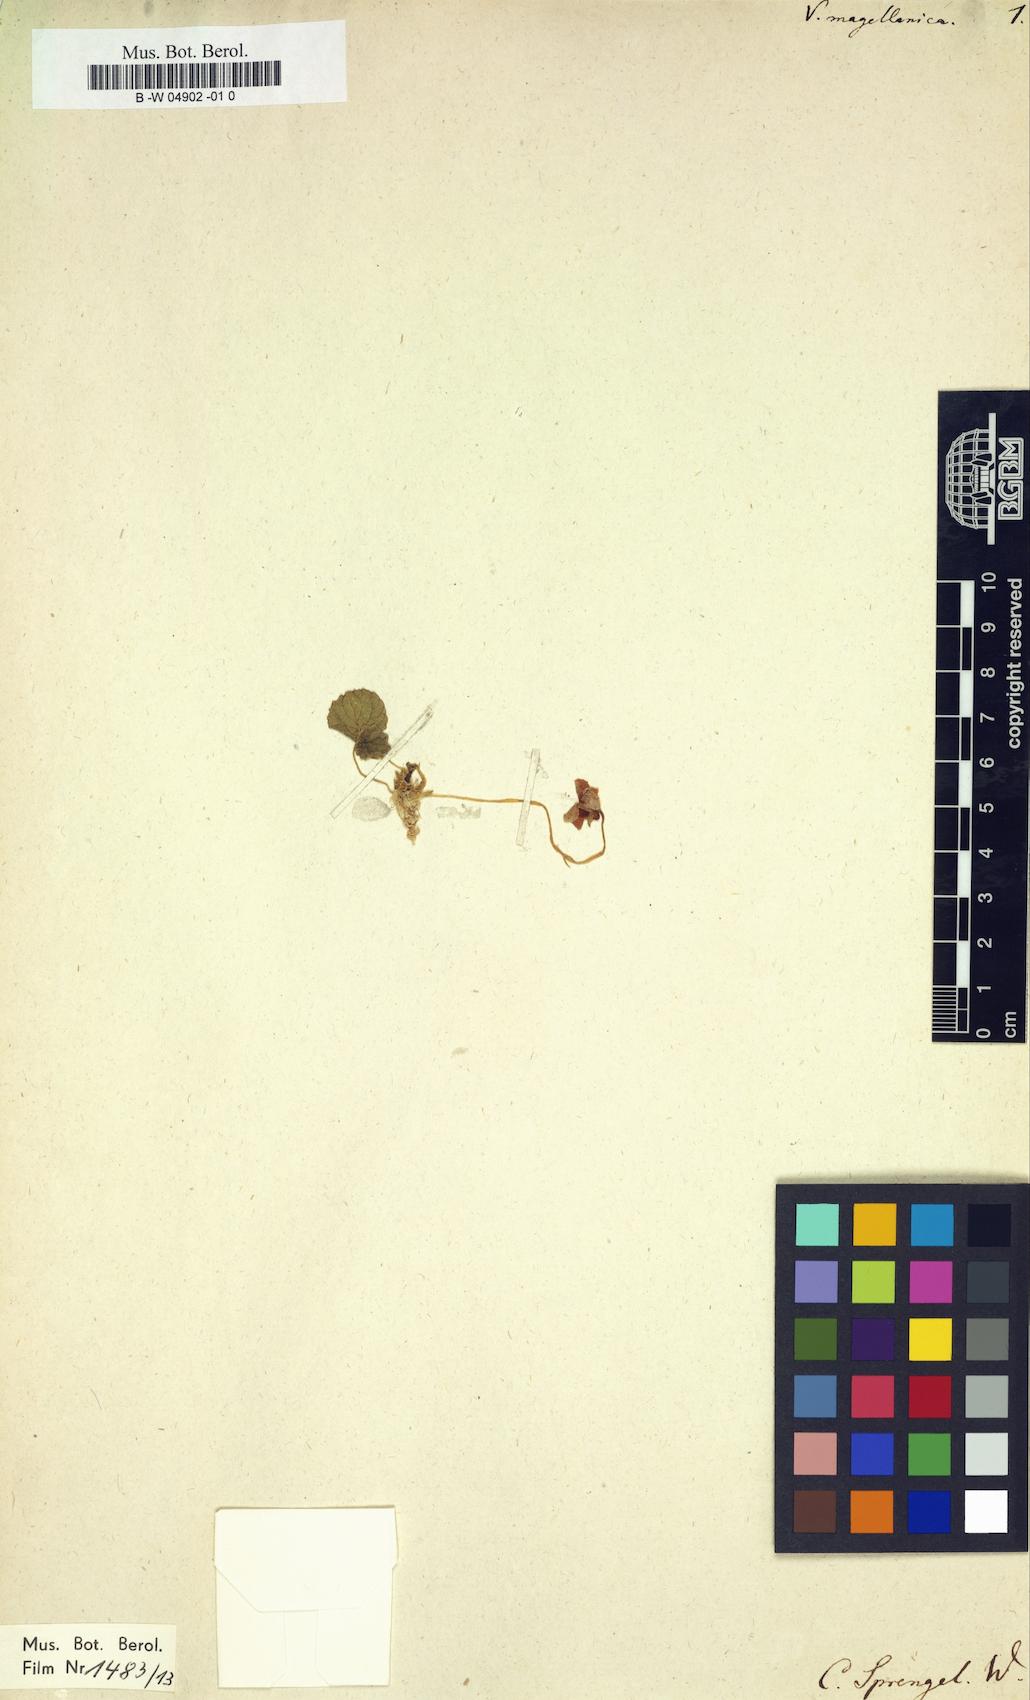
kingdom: Plantae
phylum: Tracheophyta
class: Magnoliopsida
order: Malpighiales
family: Violaceae
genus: Viola
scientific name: Viola magellanica
